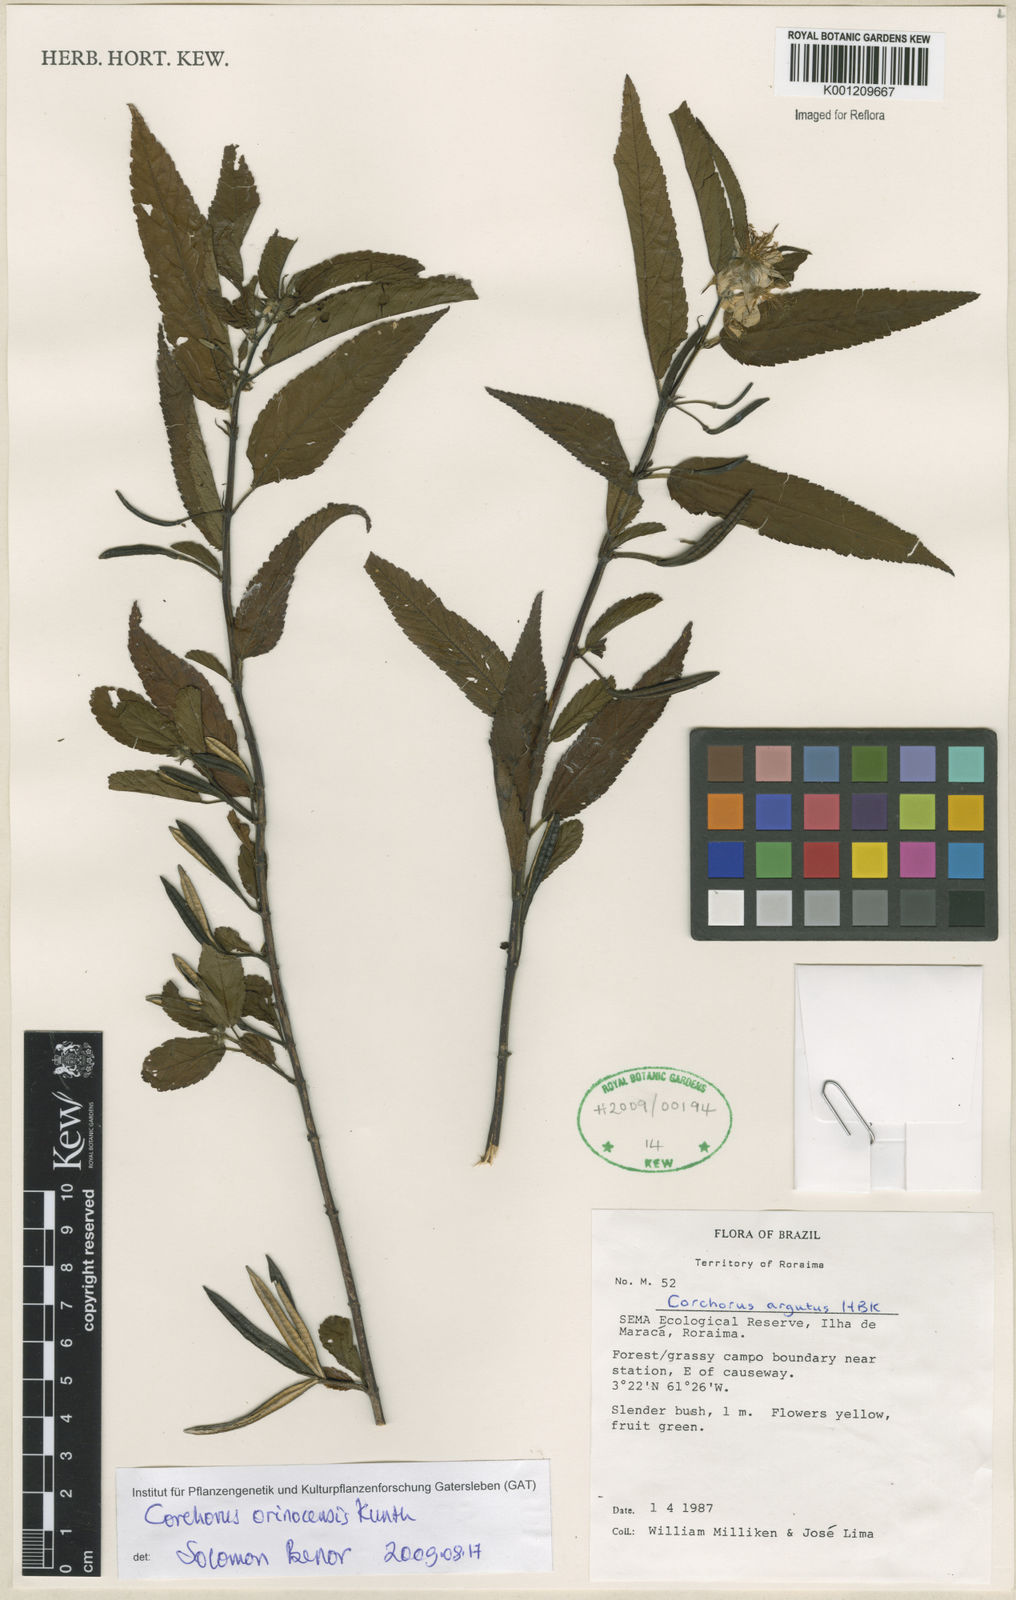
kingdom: Plantae
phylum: Tracheophyta
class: Magnoliopsida
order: Malvales
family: Malvaceae
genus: Corchorus
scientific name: Corchorus orinocensis
